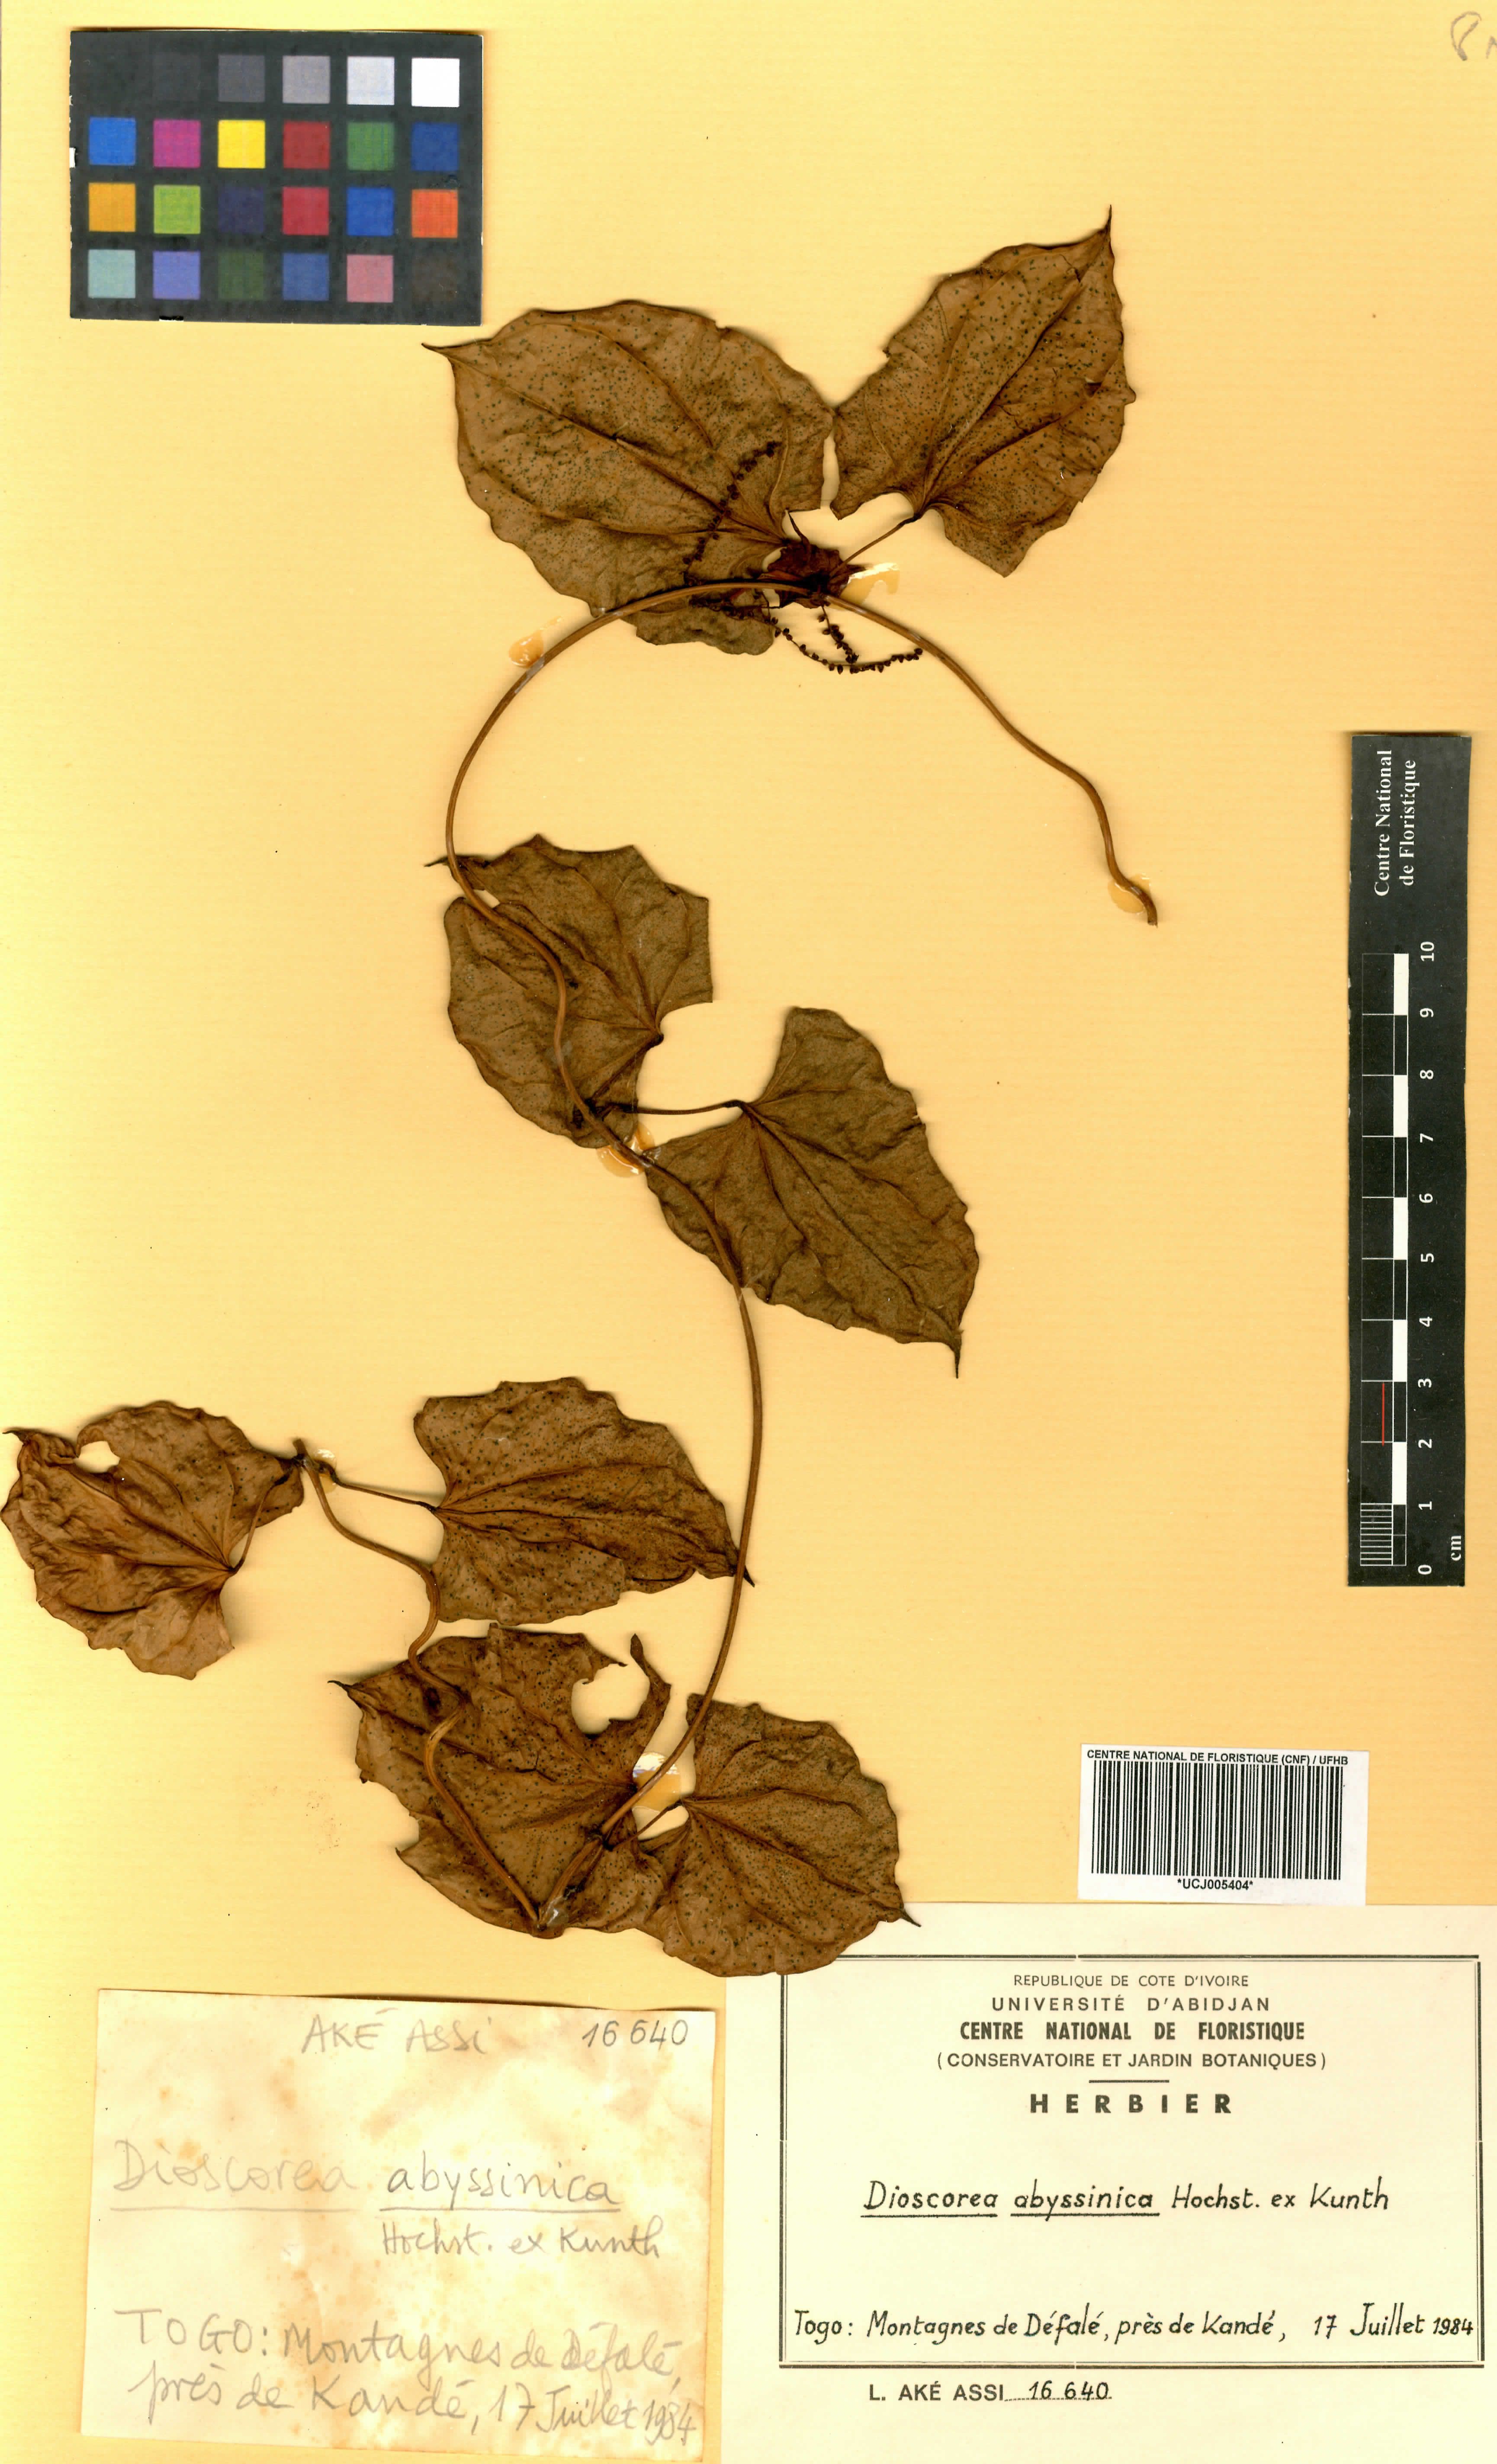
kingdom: Plantae
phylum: Tracheophyta
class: Liliopsida
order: Dioscoreales
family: Dioscoreaceae
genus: Dioscorea
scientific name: Dioscorea abyssinica
